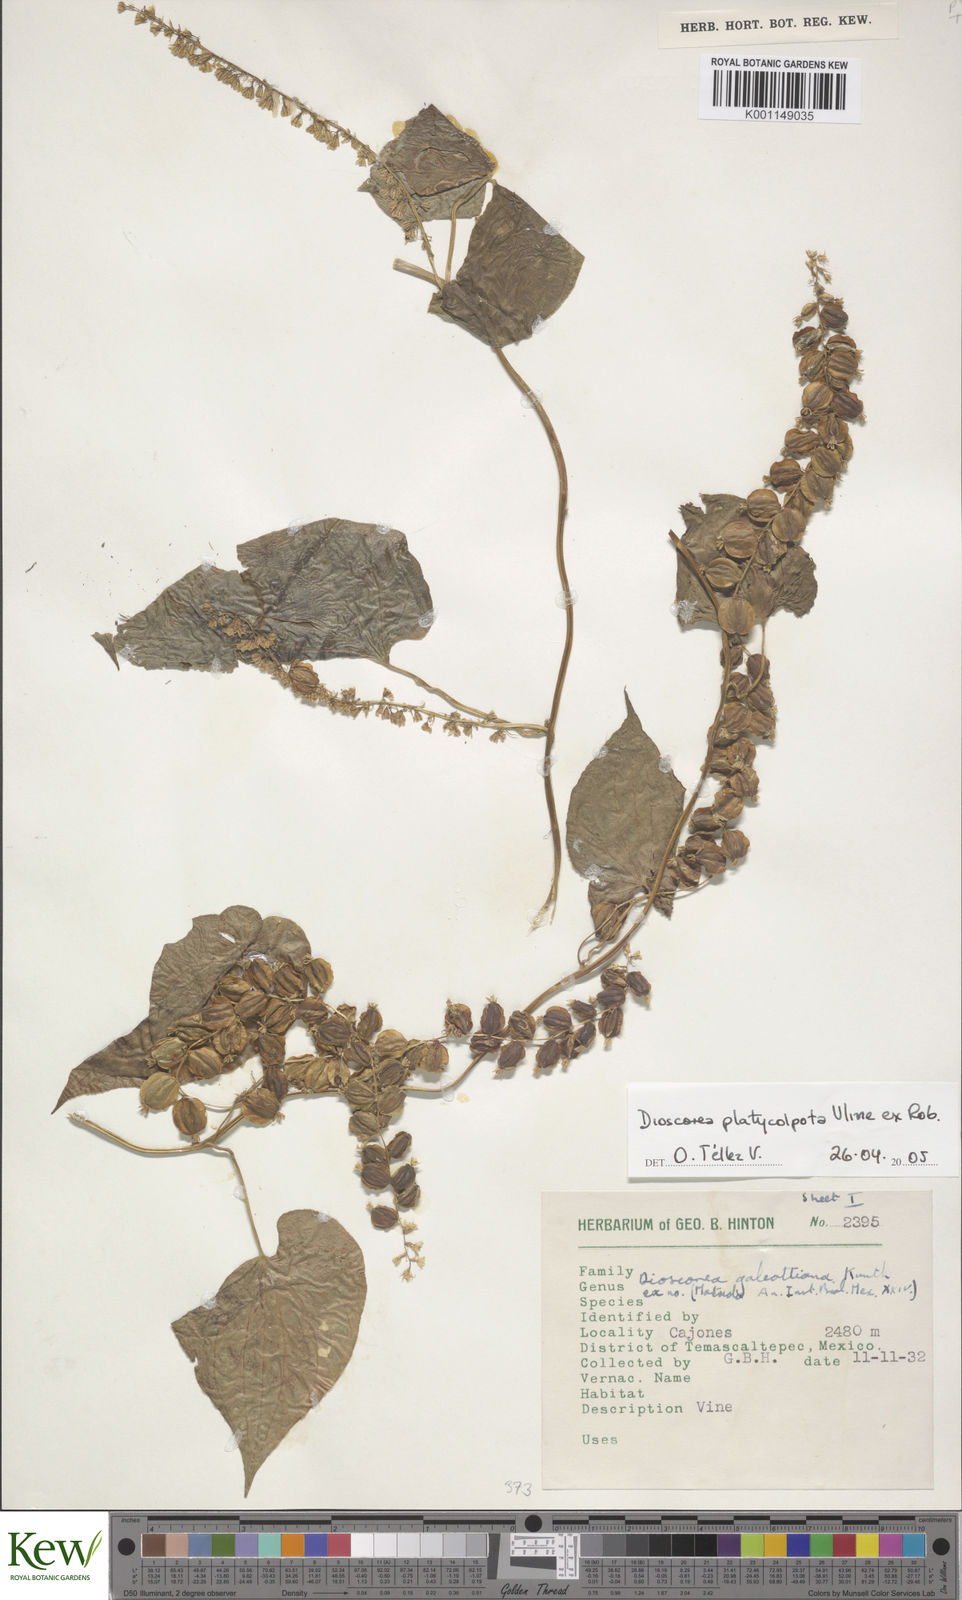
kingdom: Plantae
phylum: Tracheophyta
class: Liliopsida
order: Dioscoreales
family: Dioscoreaceae
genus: Dioscorea
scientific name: Dioscorea platycolpota
